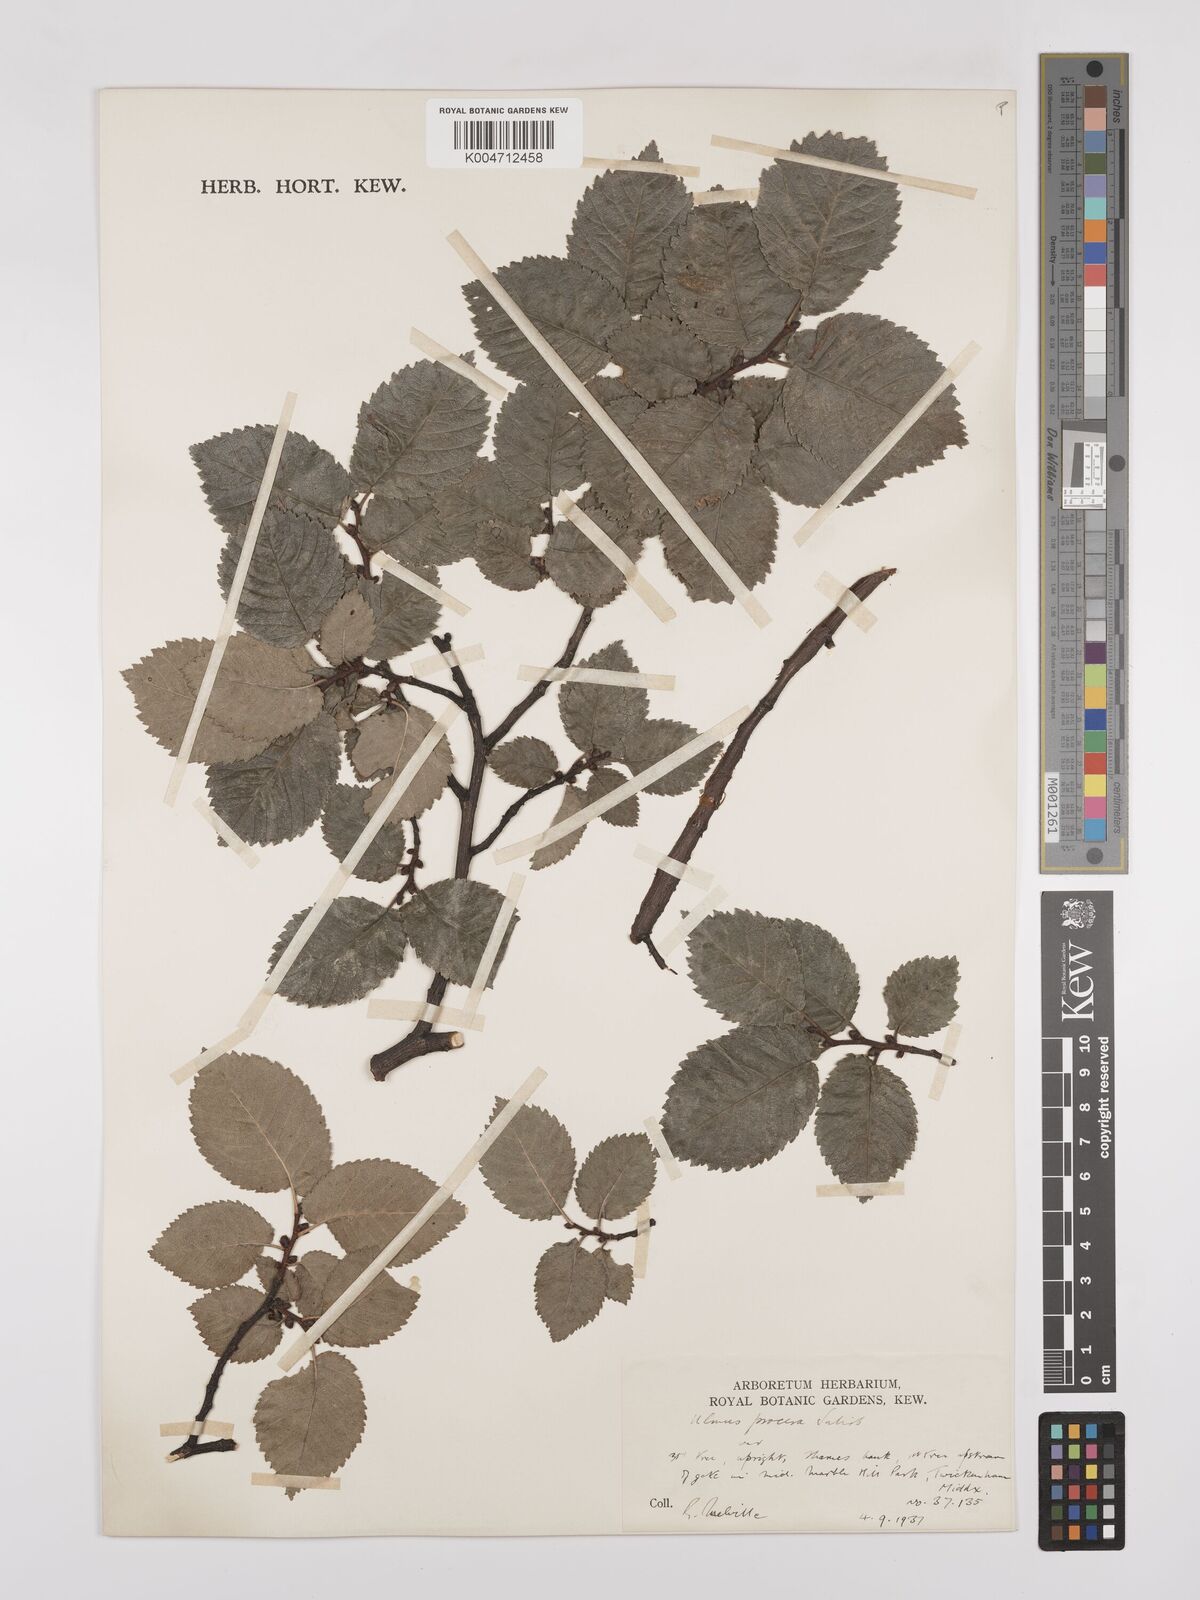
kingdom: Plantae
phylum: Tracheophyta
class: Magnoliopsida
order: Rosales
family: Ulmaceae
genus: Ulmus
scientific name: Ulmus minor
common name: Small-leaved elm
